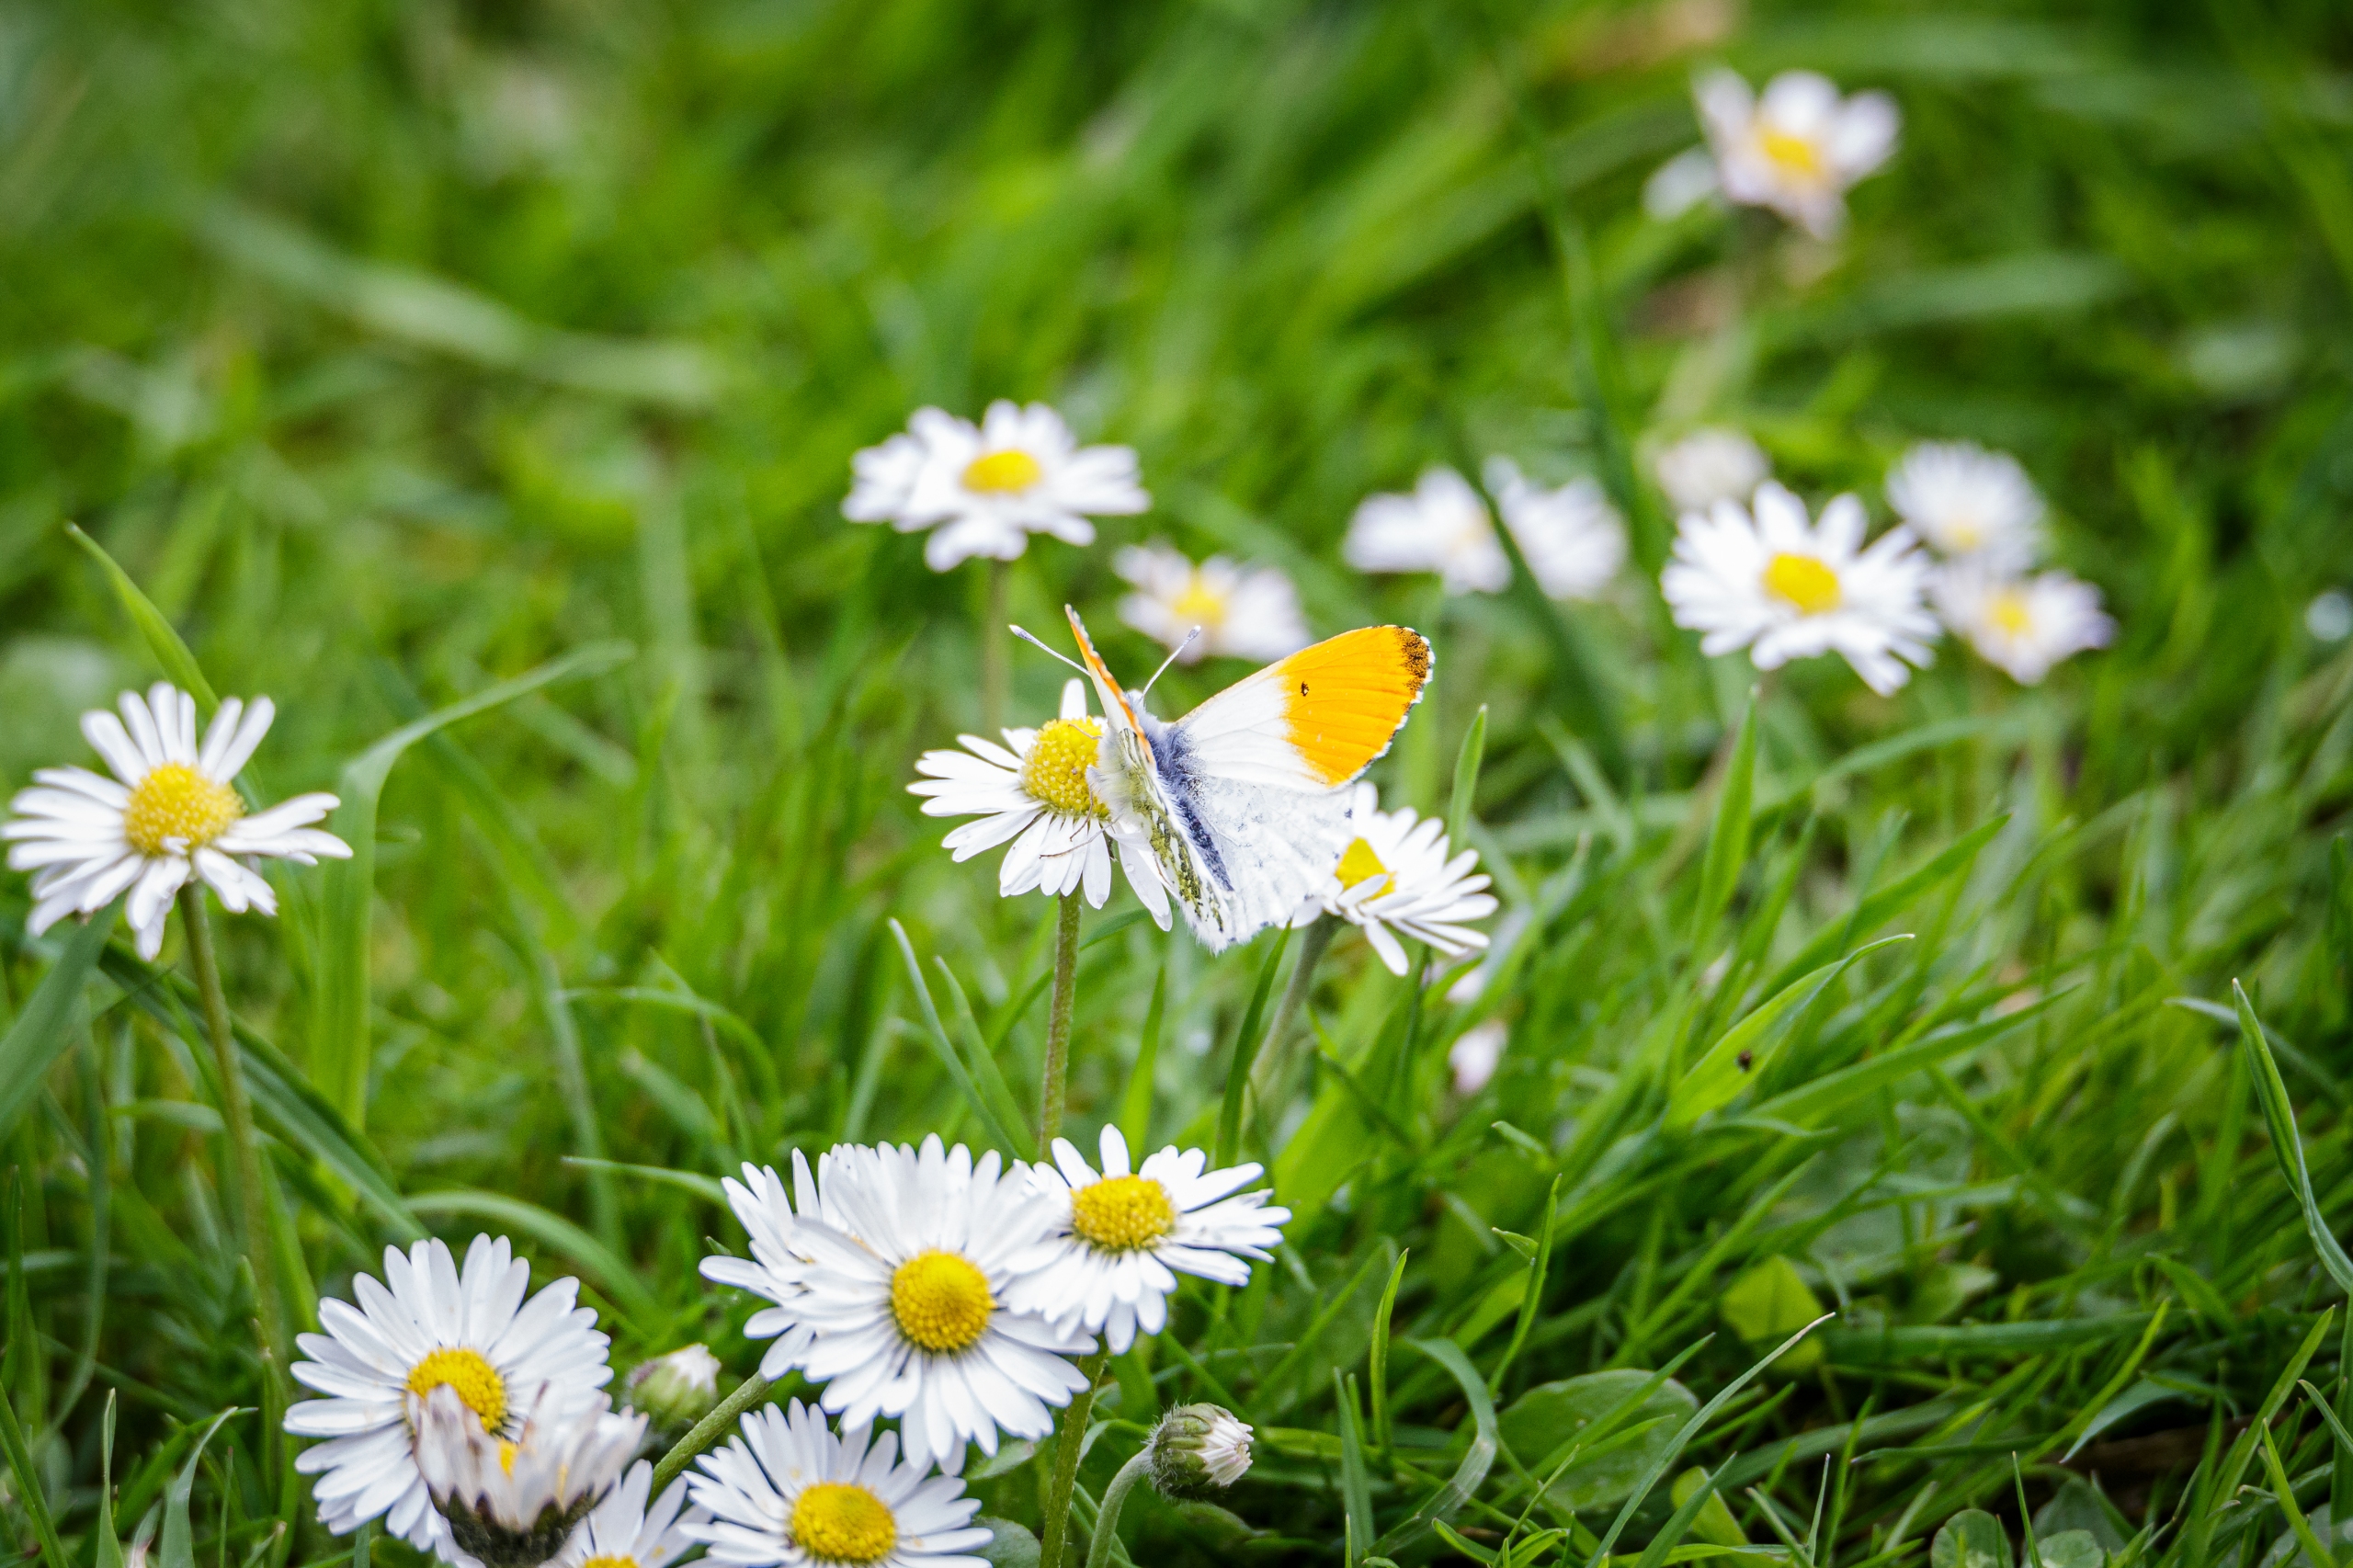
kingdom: Animalia
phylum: Arthropoda
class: Insecta
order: Lepidoptera
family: Pieridae
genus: Anthocharis
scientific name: Anthocharis cardamines
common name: Aurora
